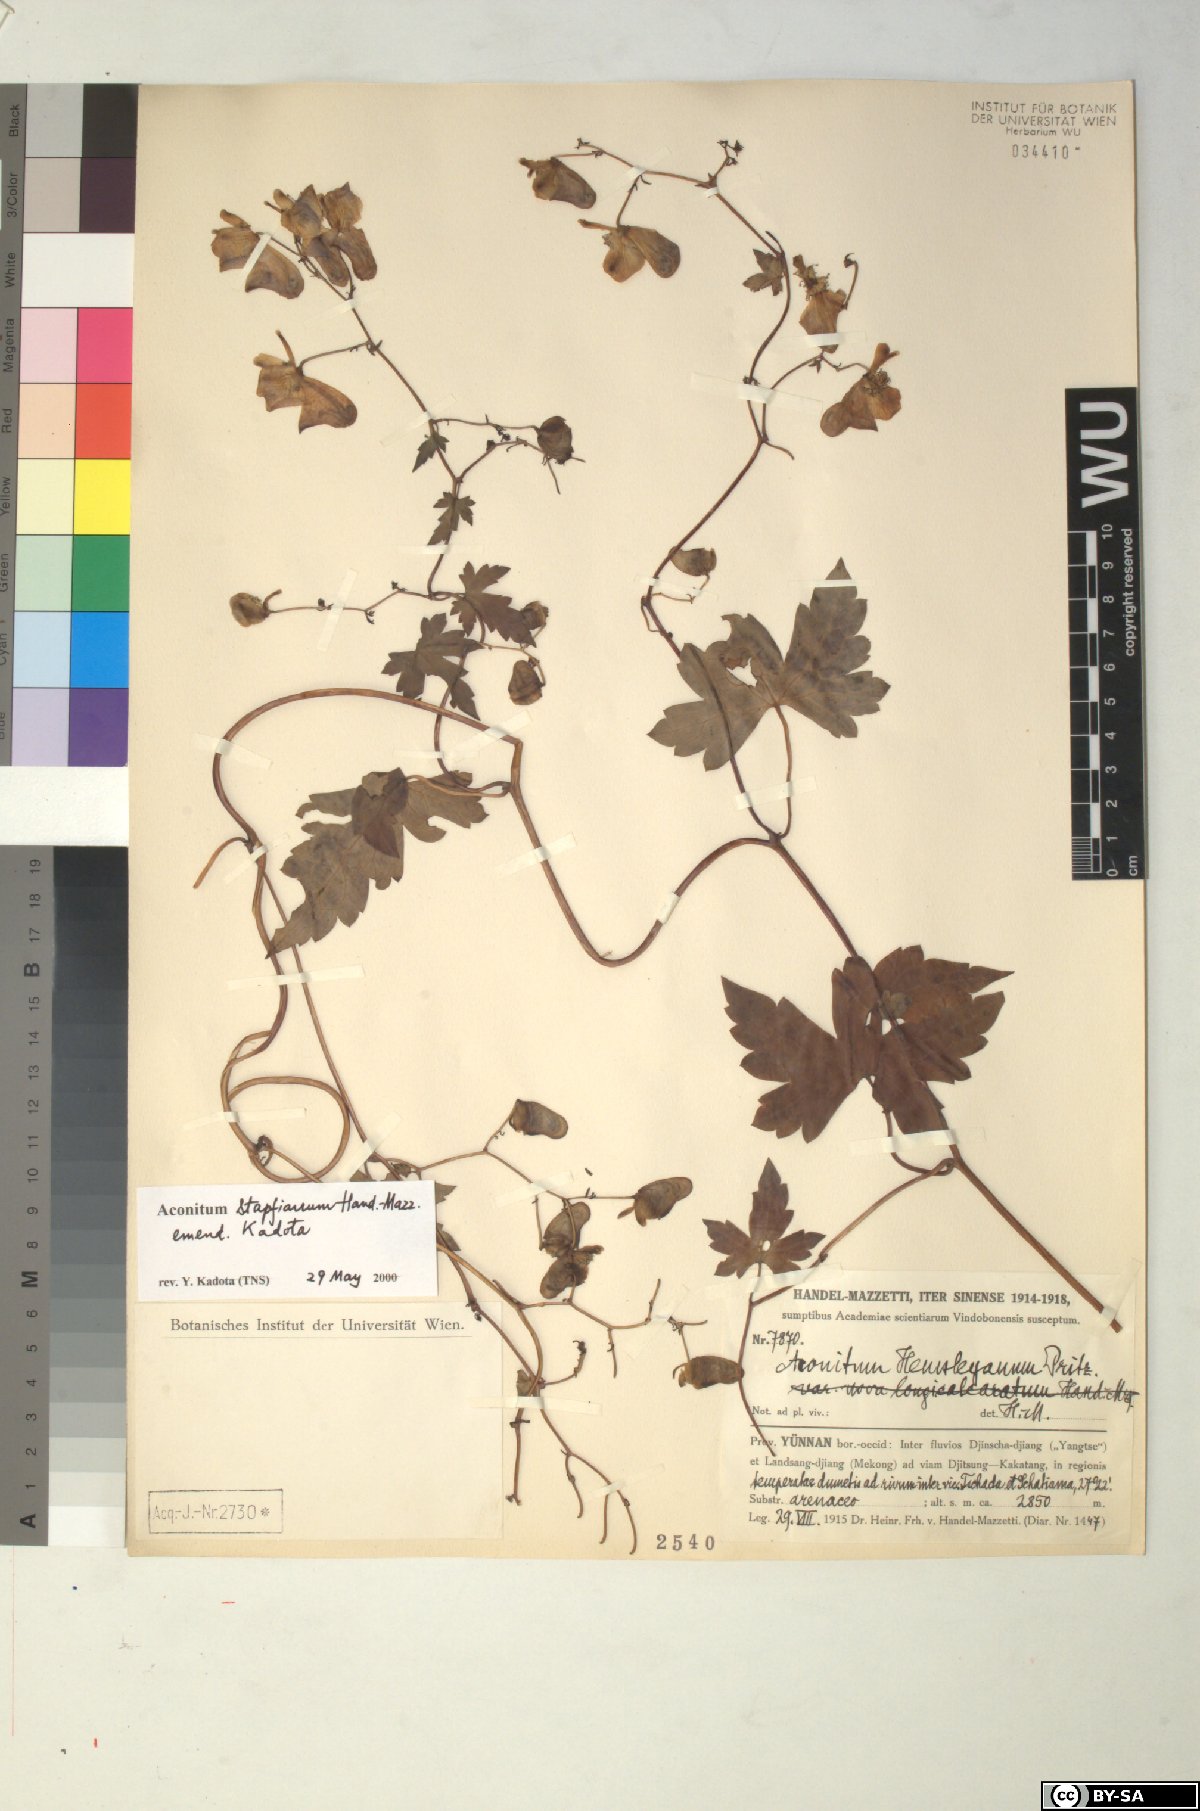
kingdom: Plantae
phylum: Tracheophyta
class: Magnoliopsida
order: Ranunculales
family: Ranunculaceae
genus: Aconitum
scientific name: Aconitum stapfianum
